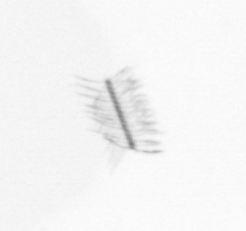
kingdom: Chromista
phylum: Ochrophyta
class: Bacillariophyceae
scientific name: Bacillariophyceae
